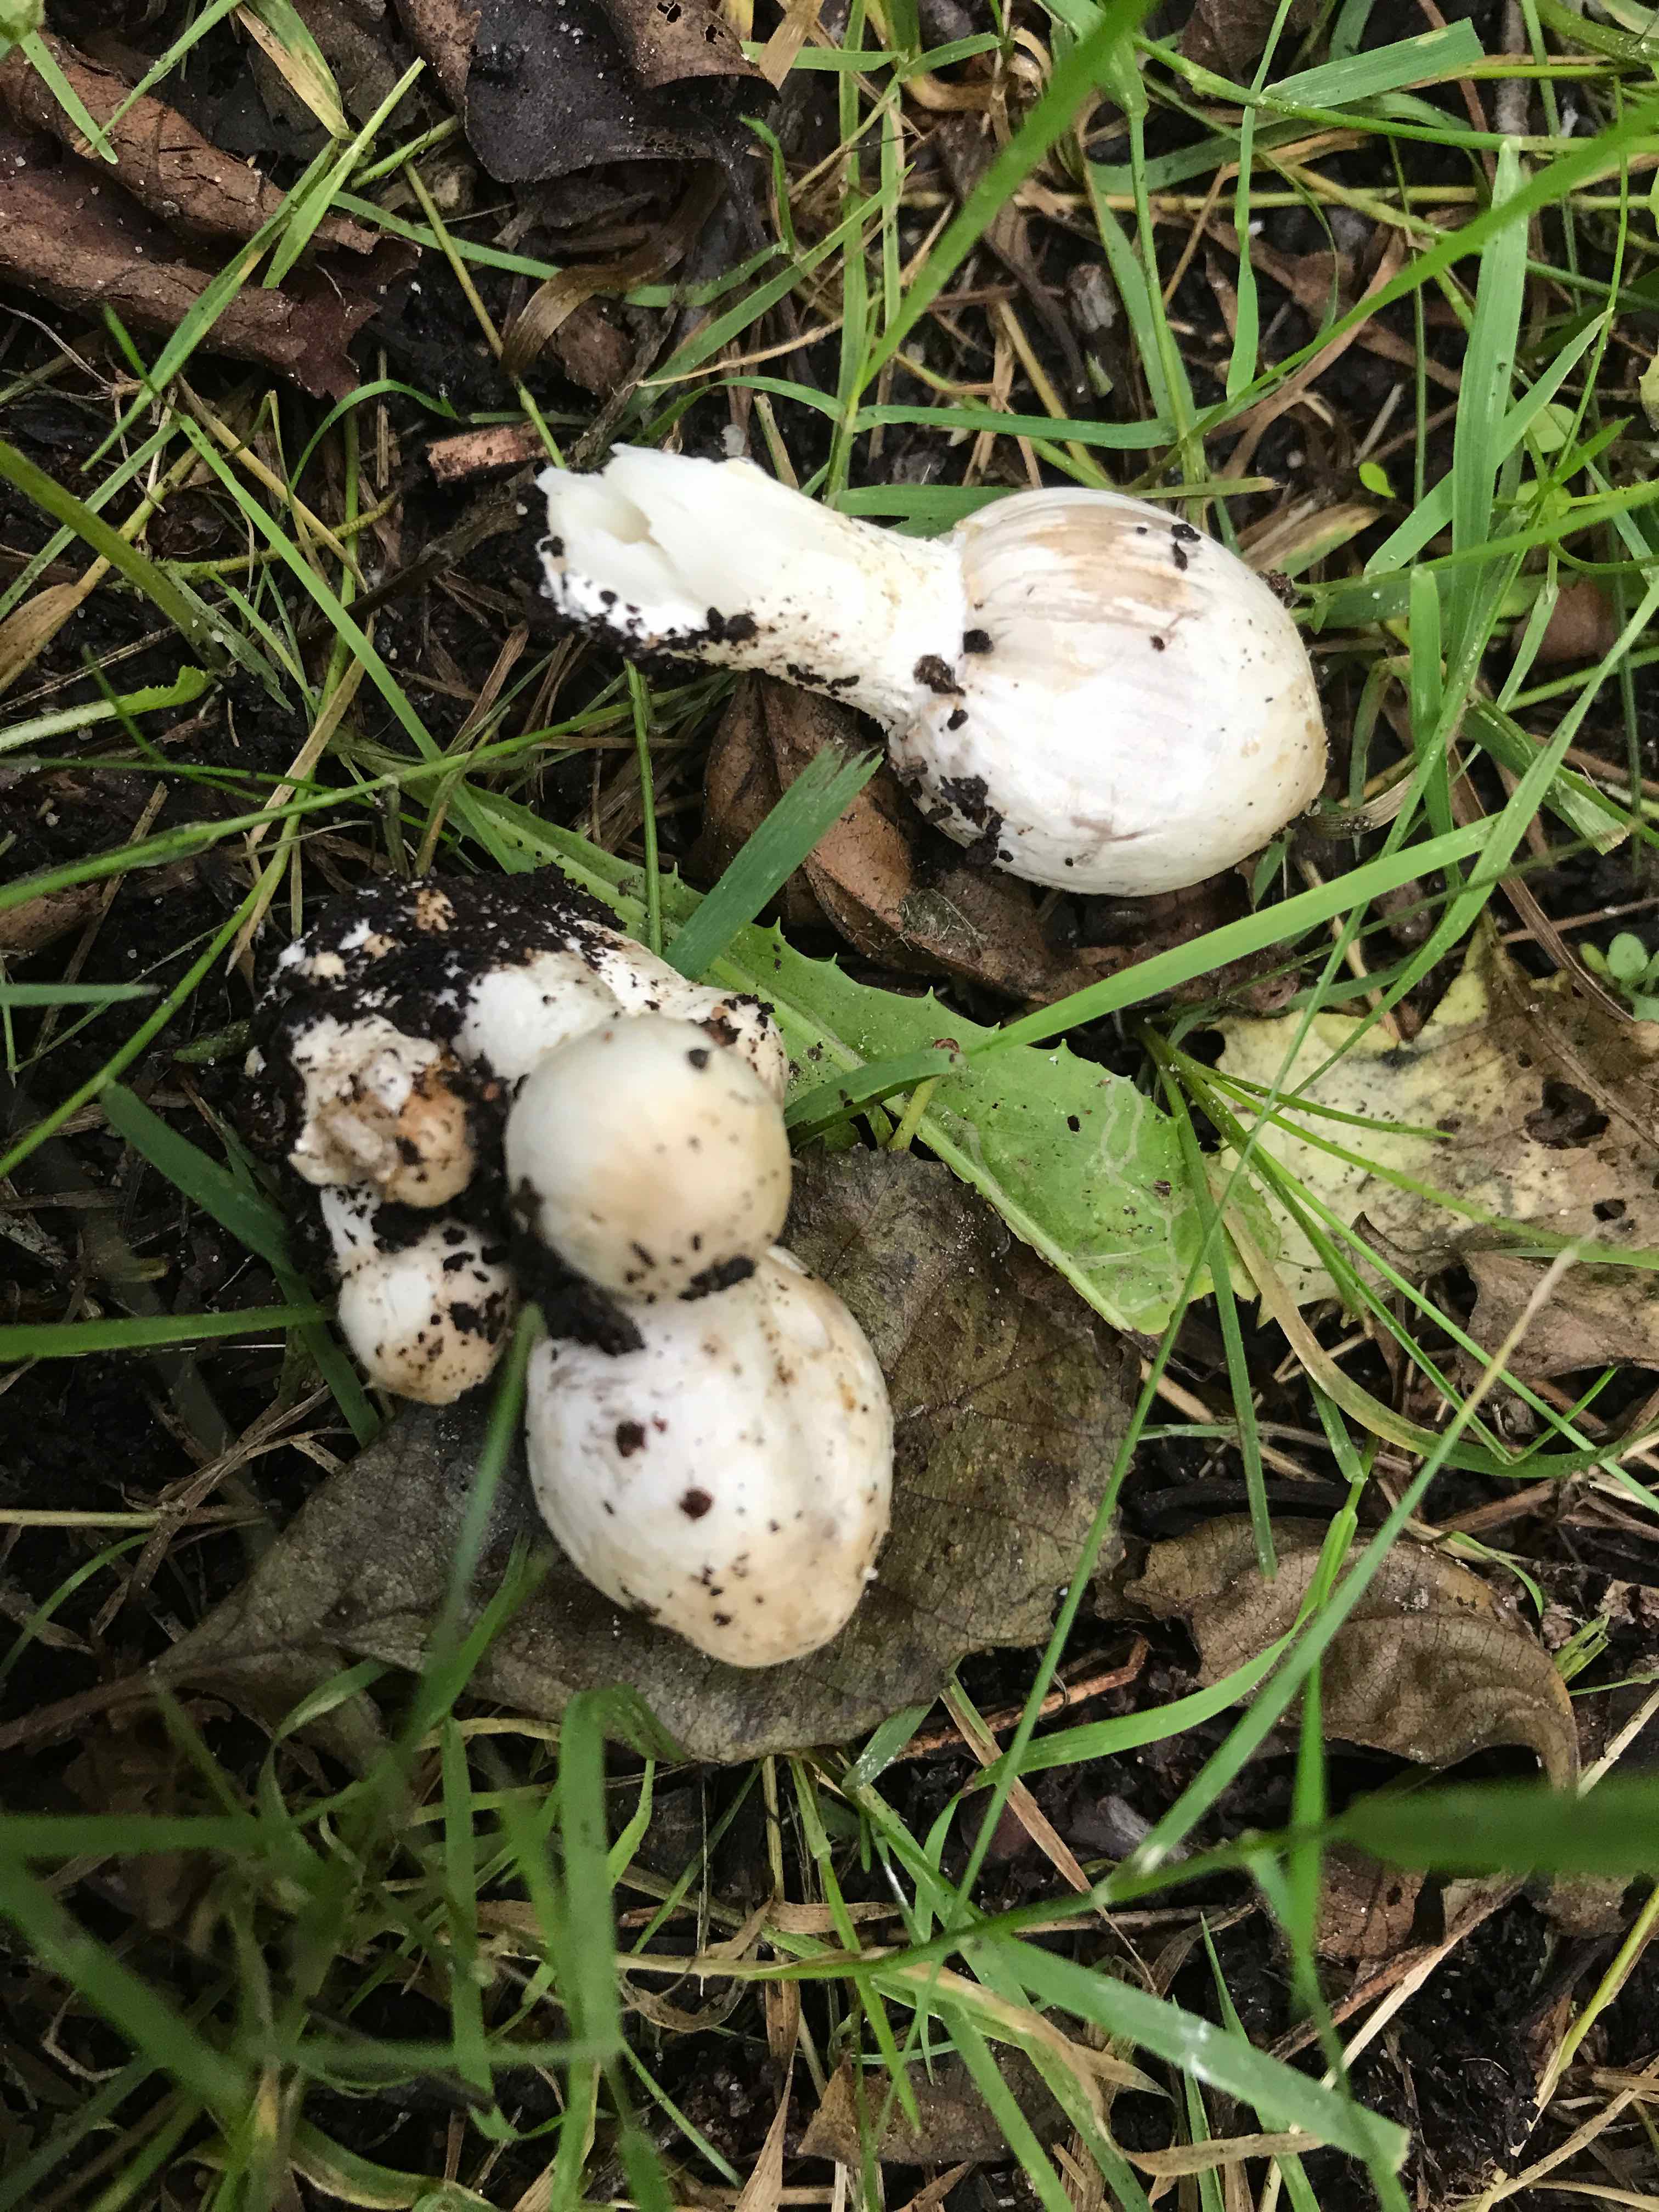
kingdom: Fungi
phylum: Basidiomycota
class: Agaricomycetes
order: Agaricales
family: Psathyrellaceae
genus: Coprinopsis
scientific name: Coprinopsis atramentaria
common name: almindelig blækhat
